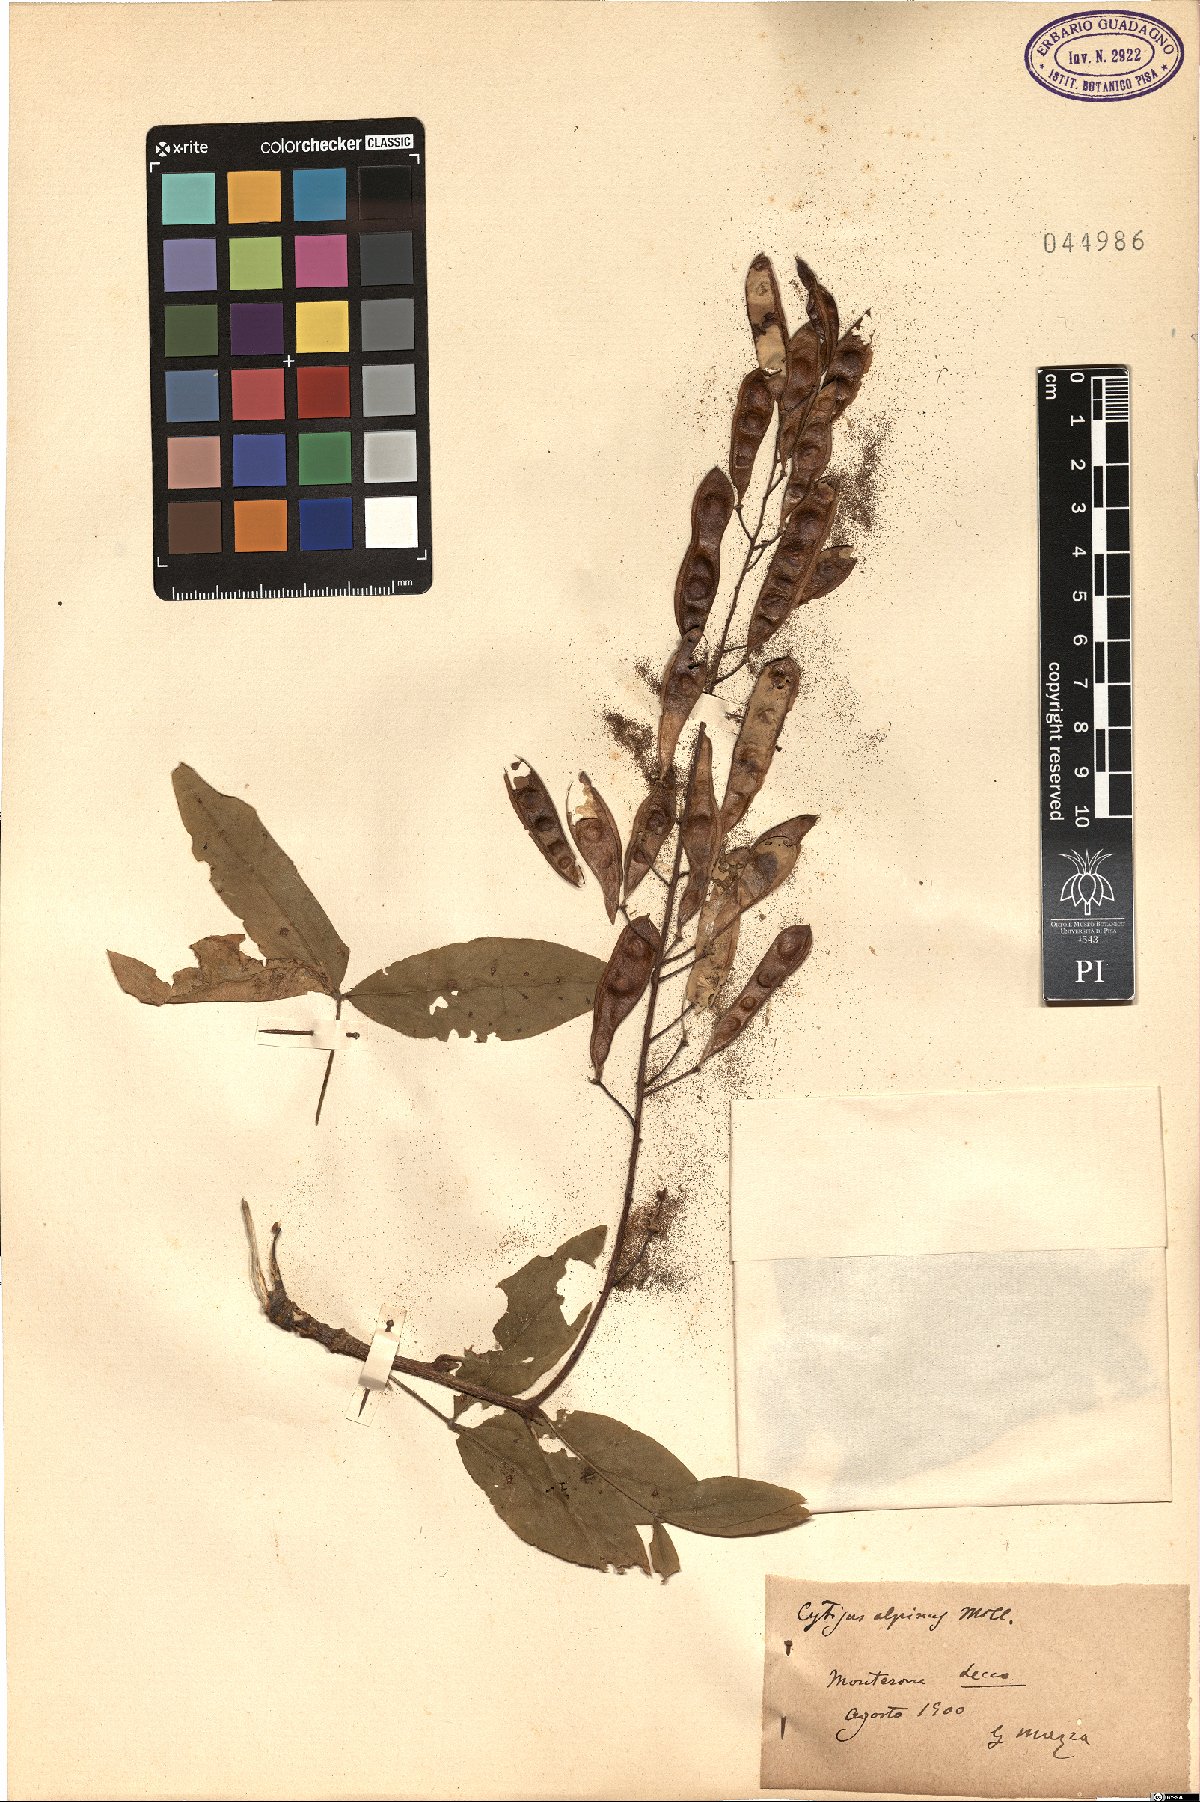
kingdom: Plantae
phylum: Tracheophyta
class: Magnoliopsida
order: Fabales
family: Fabaceae
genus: Laburnum
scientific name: Laburnum alpinum
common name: Scottish laburnum
